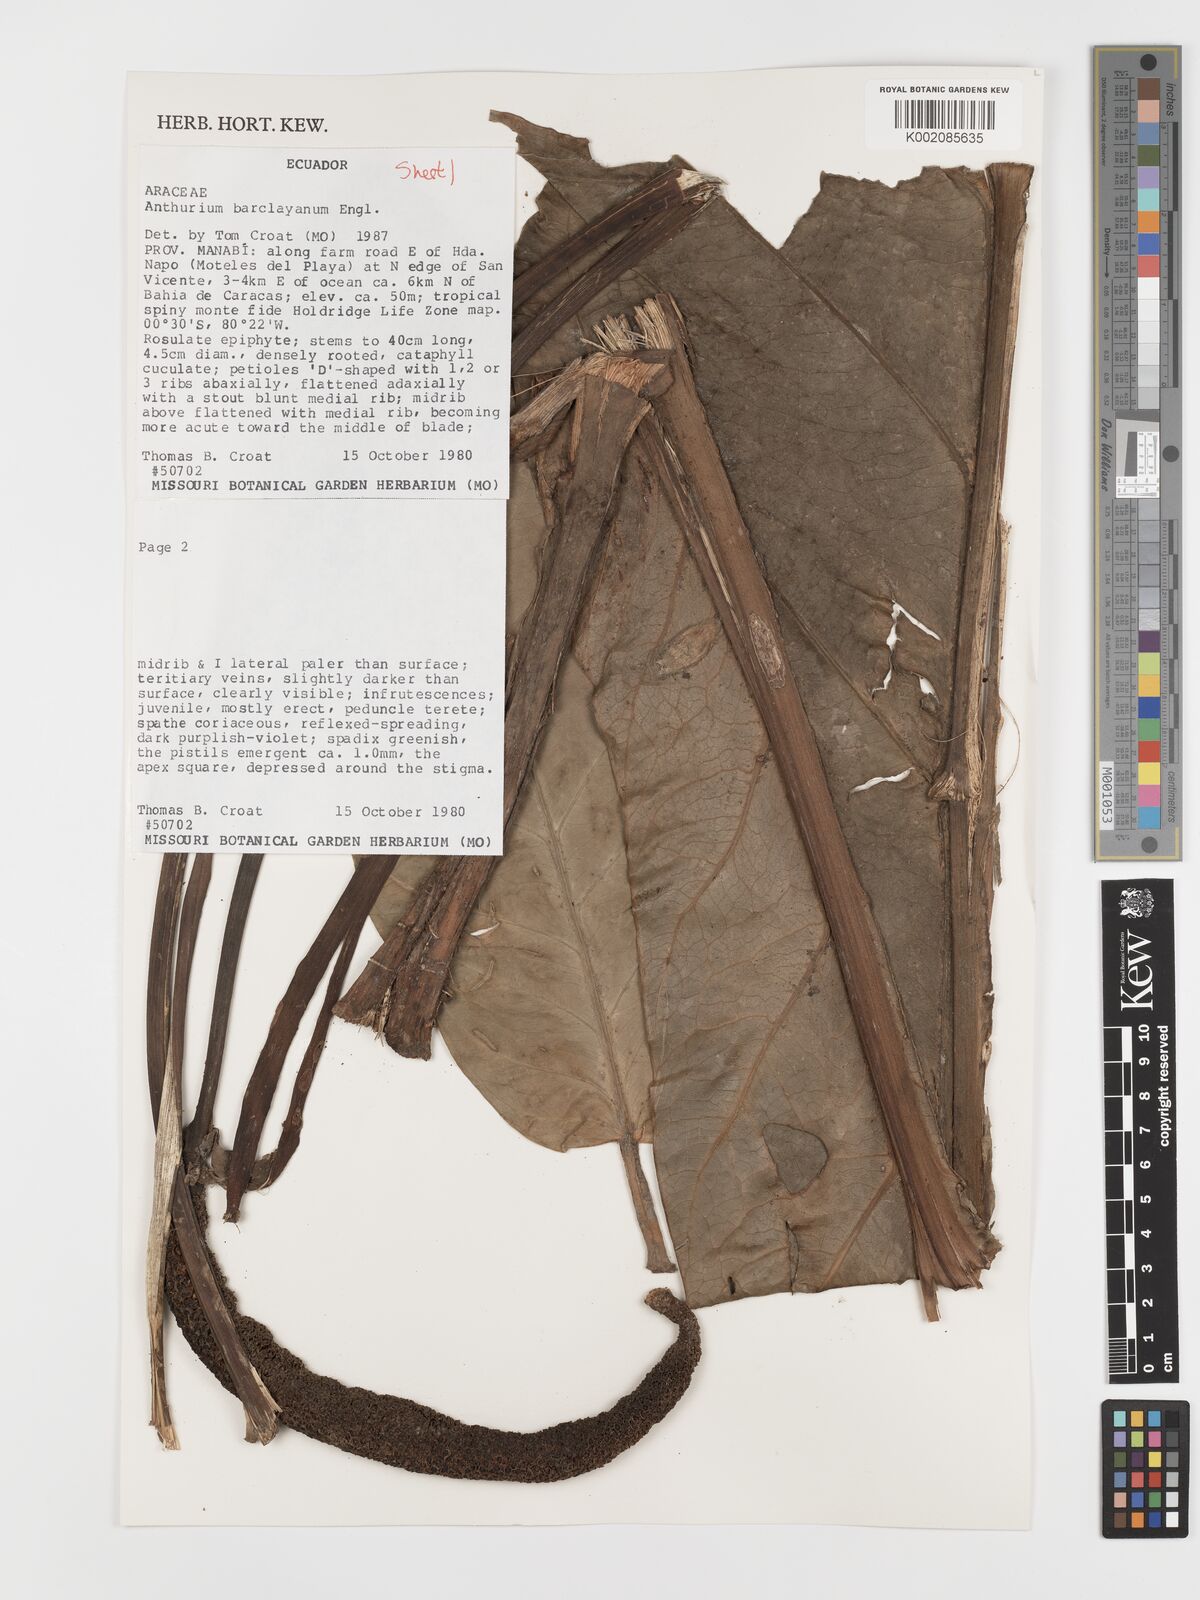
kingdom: Plantae
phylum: Tracheophyta
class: Liliopsida
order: Alismatales
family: Araceae
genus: Anthurium
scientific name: Anthurium balaoanum
